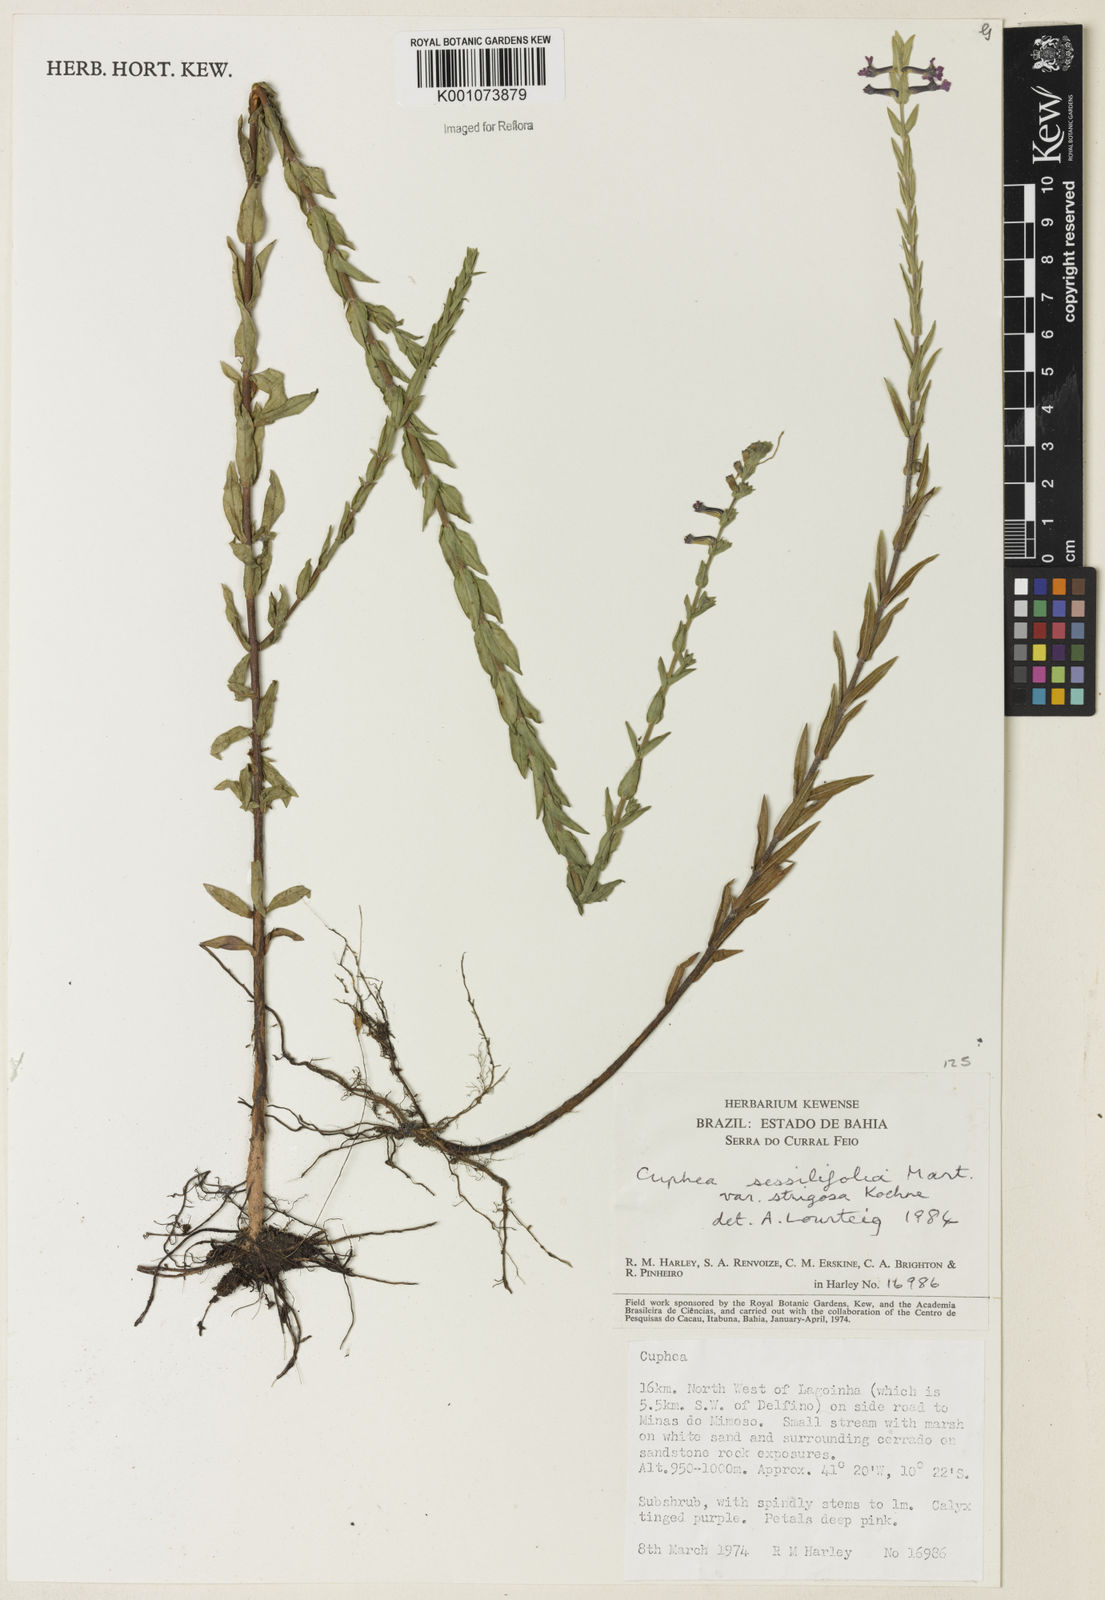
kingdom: Plantae
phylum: Tracheophyta
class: Magnoliopsida
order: Myrtales
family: Lythraceae
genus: Cuphea
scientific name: Cuphea sessilifolia
